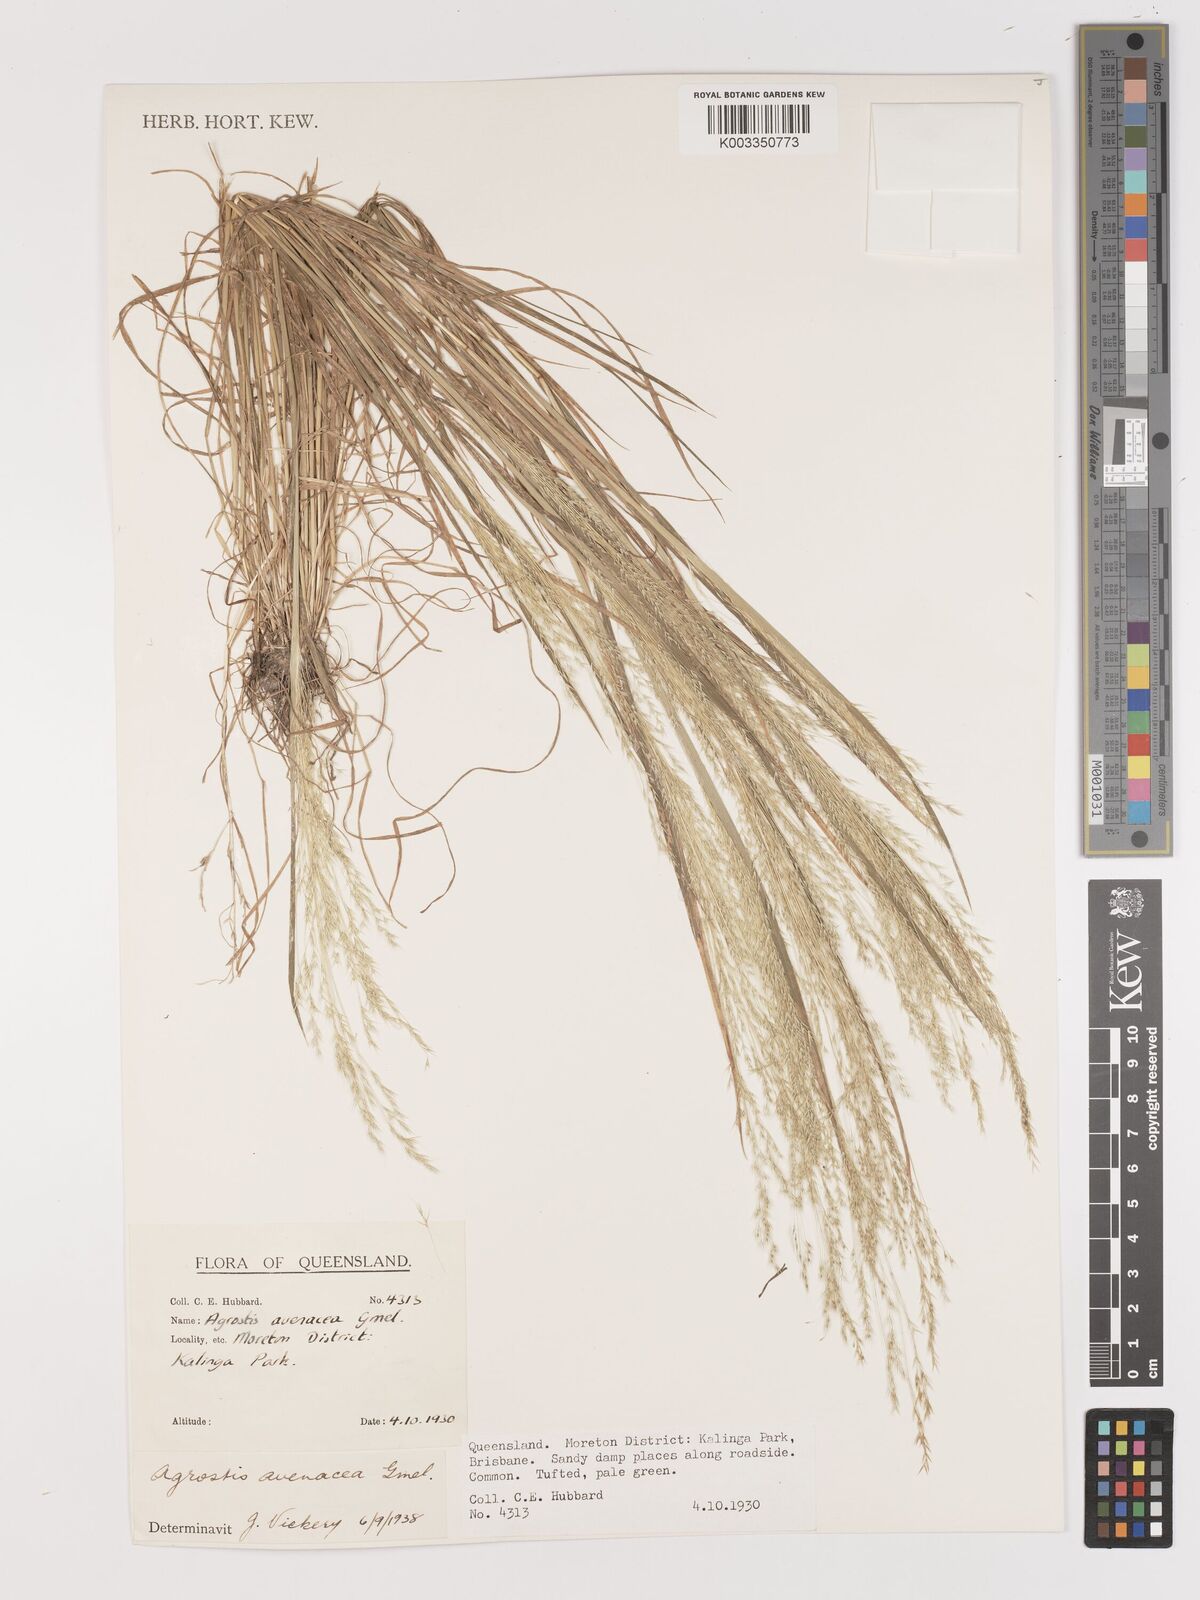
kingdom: Plantae
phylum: Tracheophyta
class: Liliopsida
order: Poales
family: Poaceae
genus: Lachnagrostis
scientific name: Lachnagrostis filiformis
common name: Bentgrass
